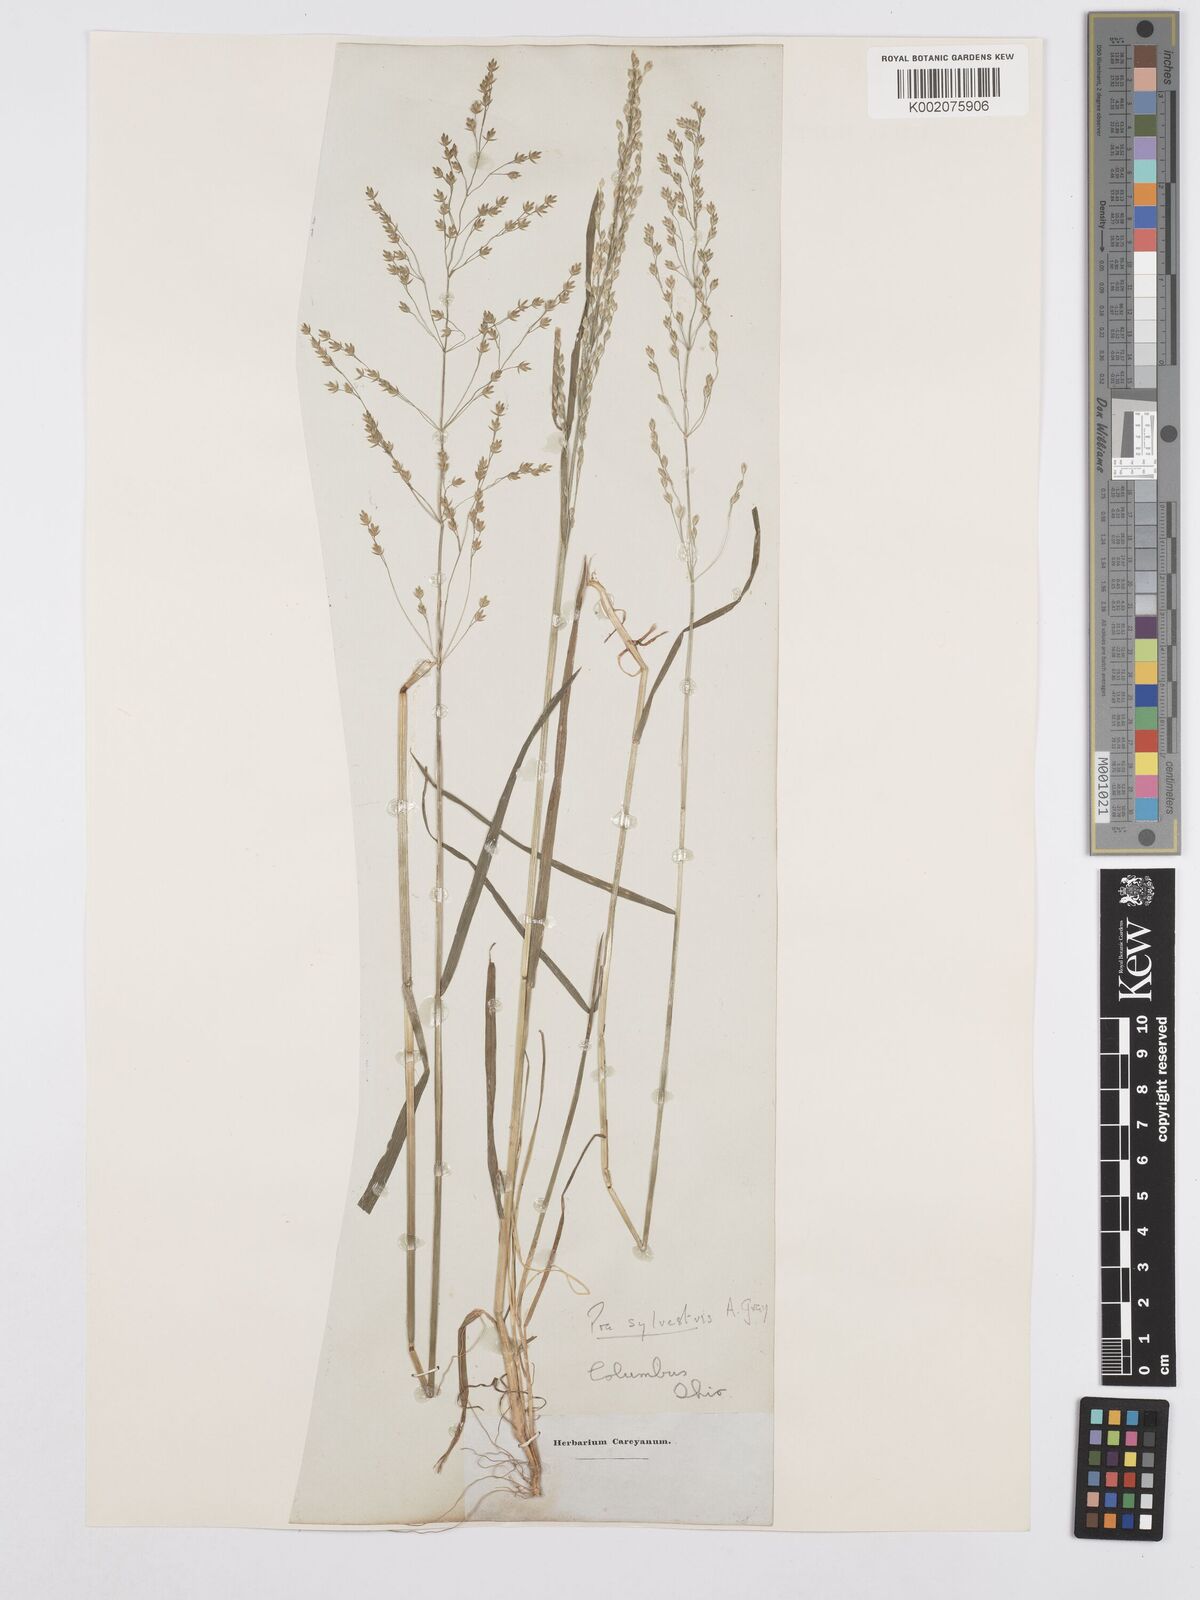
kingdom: Plantae
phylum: Tracheophyta
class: Liliopsida
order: Poales
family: Poaceae
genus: Poa
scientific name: Poa sylvestris
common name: North american woodland bluegrass
